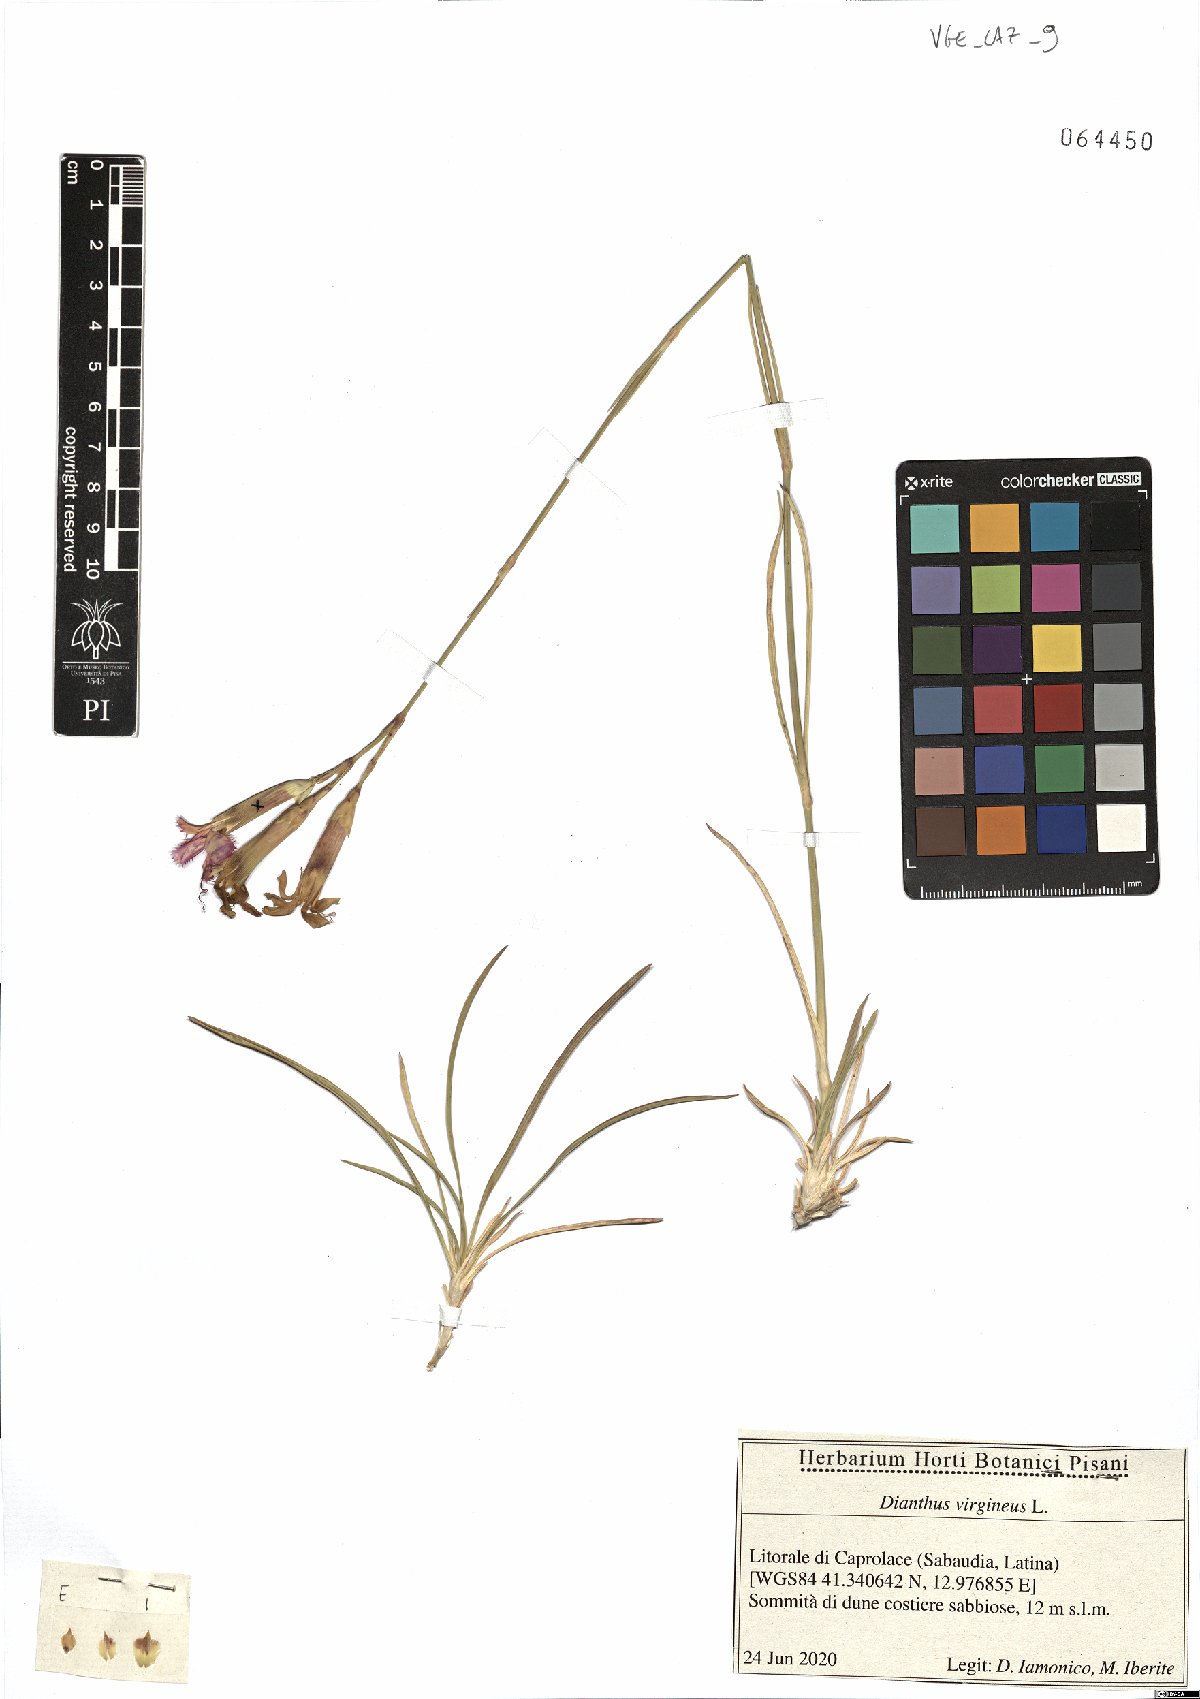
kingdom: Plantae
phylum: Tracheophyta
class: Magnoliopsida
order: Caryophyllales
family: Caryophyllaceae
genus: Dianthus
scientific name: Dianthus virgineus
